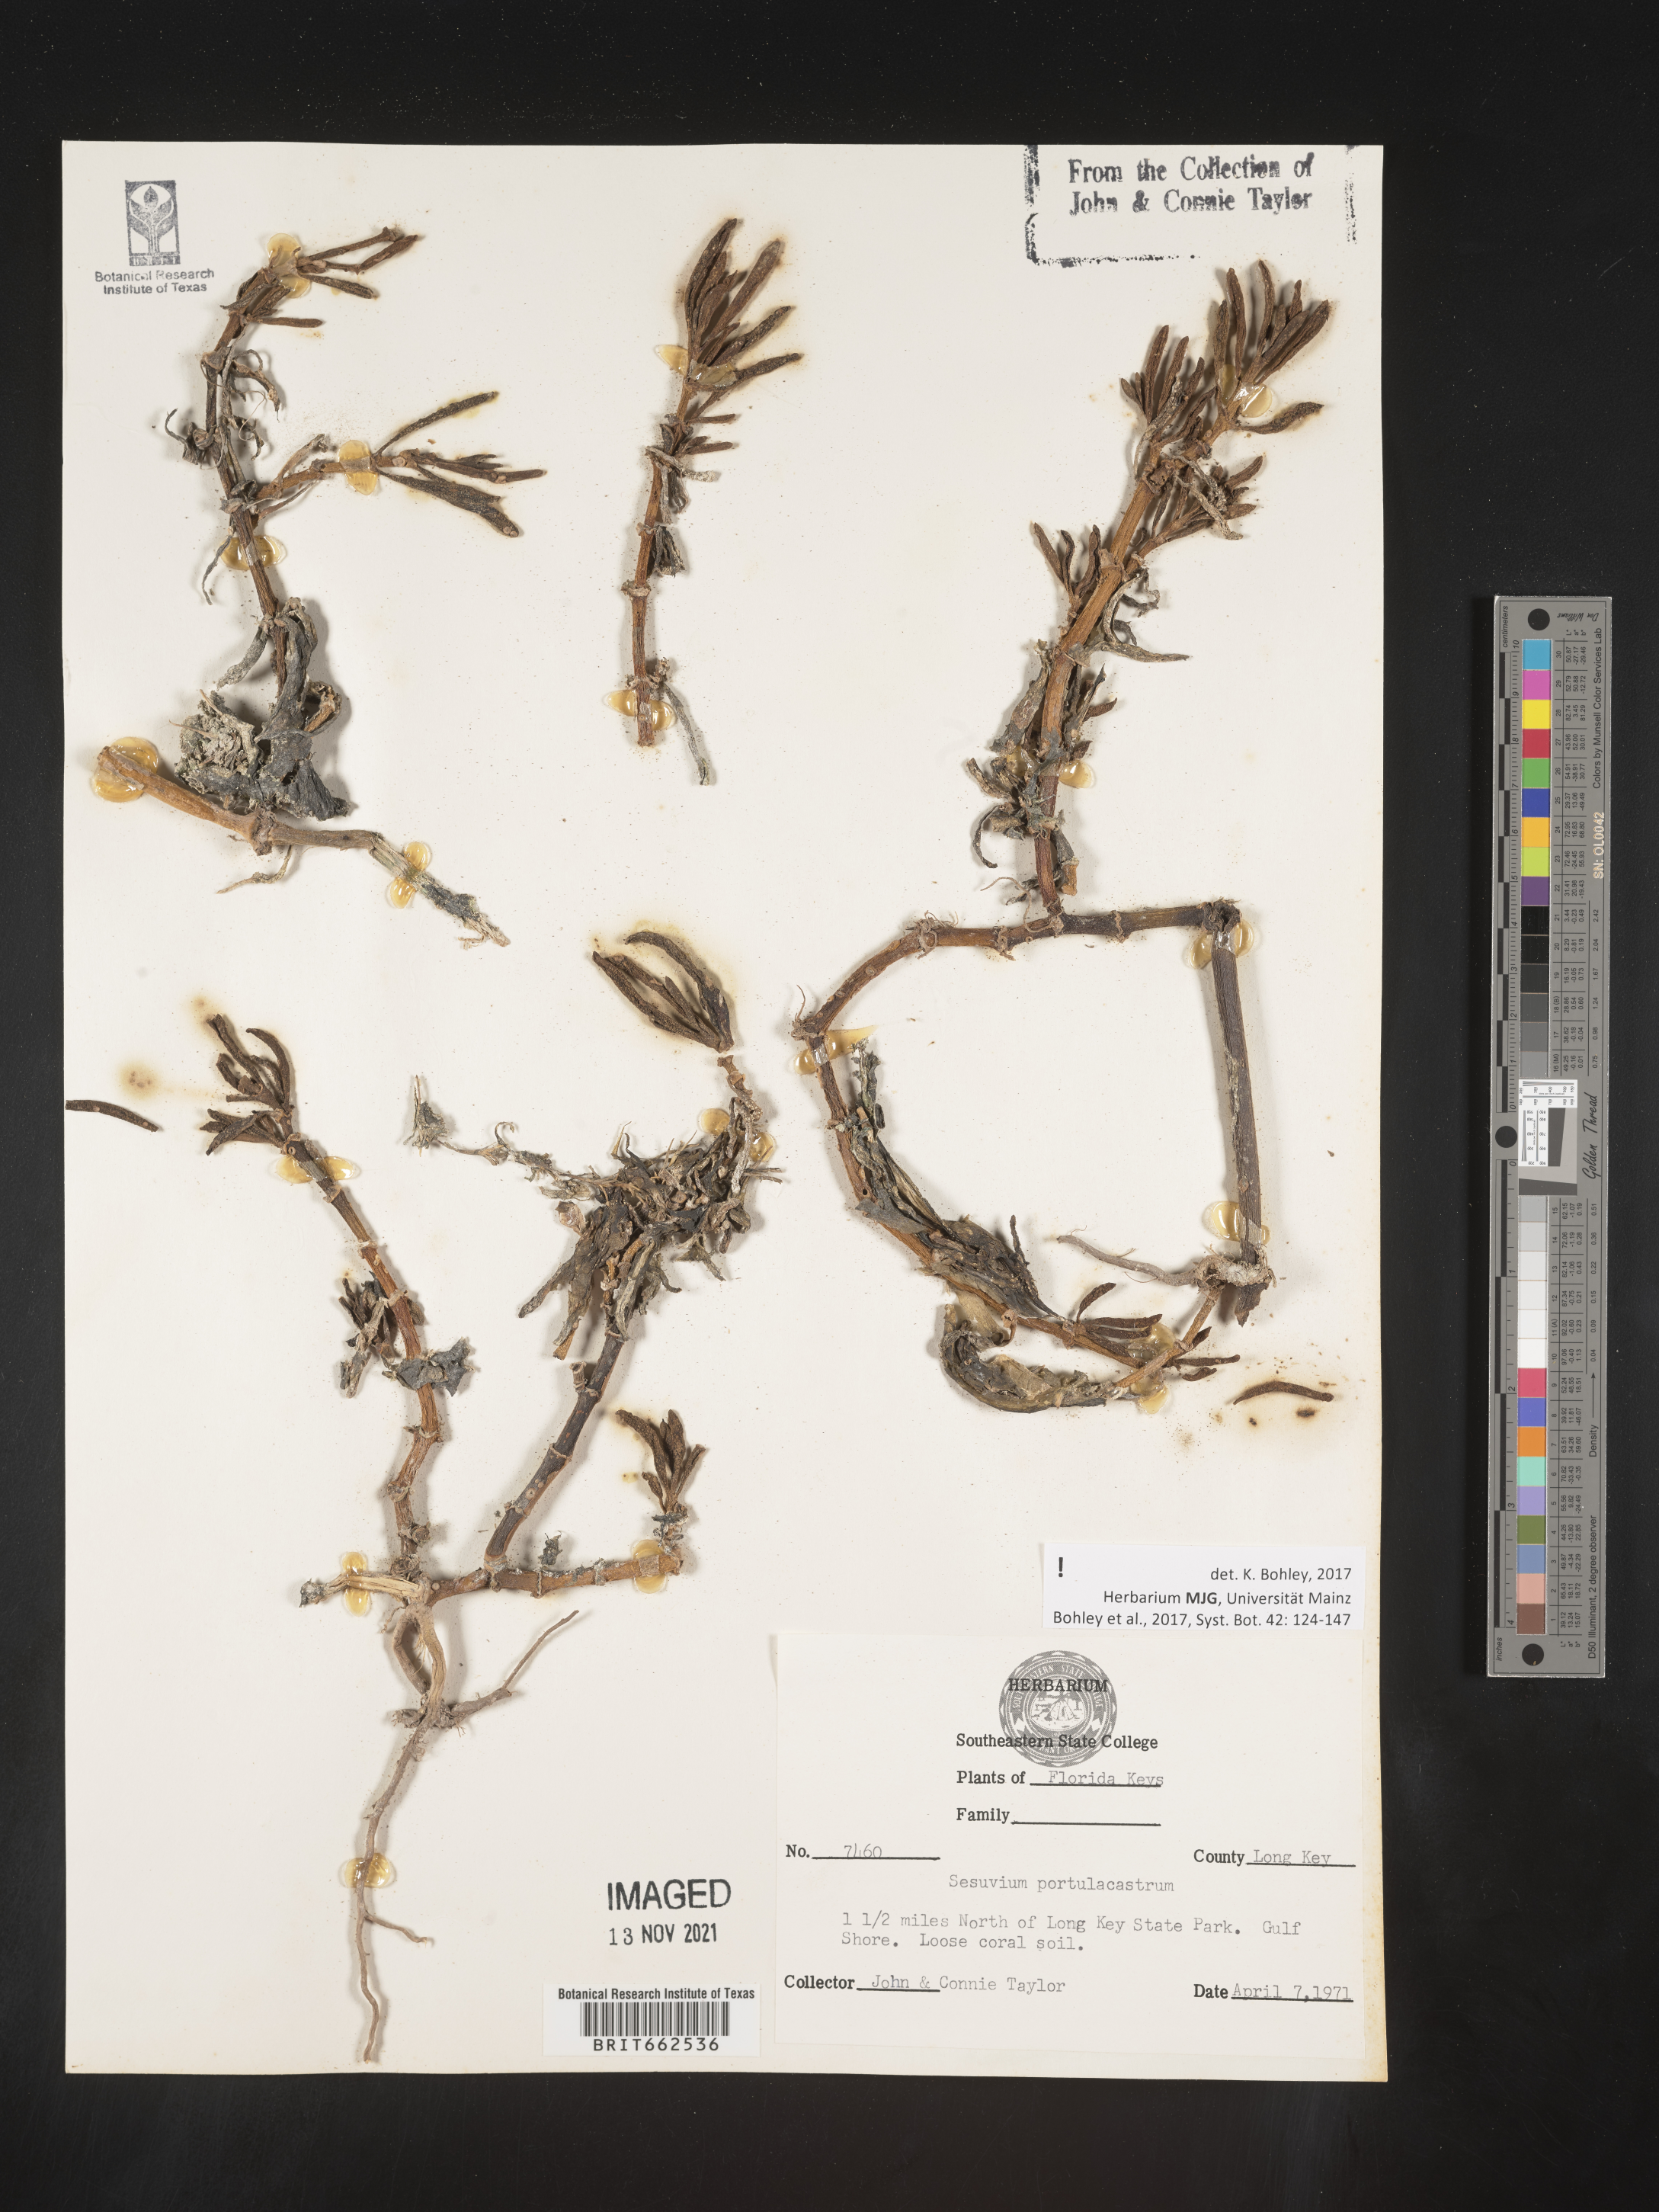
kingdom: Plantae
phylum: Tracheophyta
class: Magnoliopsida
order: Caryophyllales
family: Aizoaceae
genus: Sesuvium
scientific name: Sesuvium portulacastrum
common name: Sea-purslane
